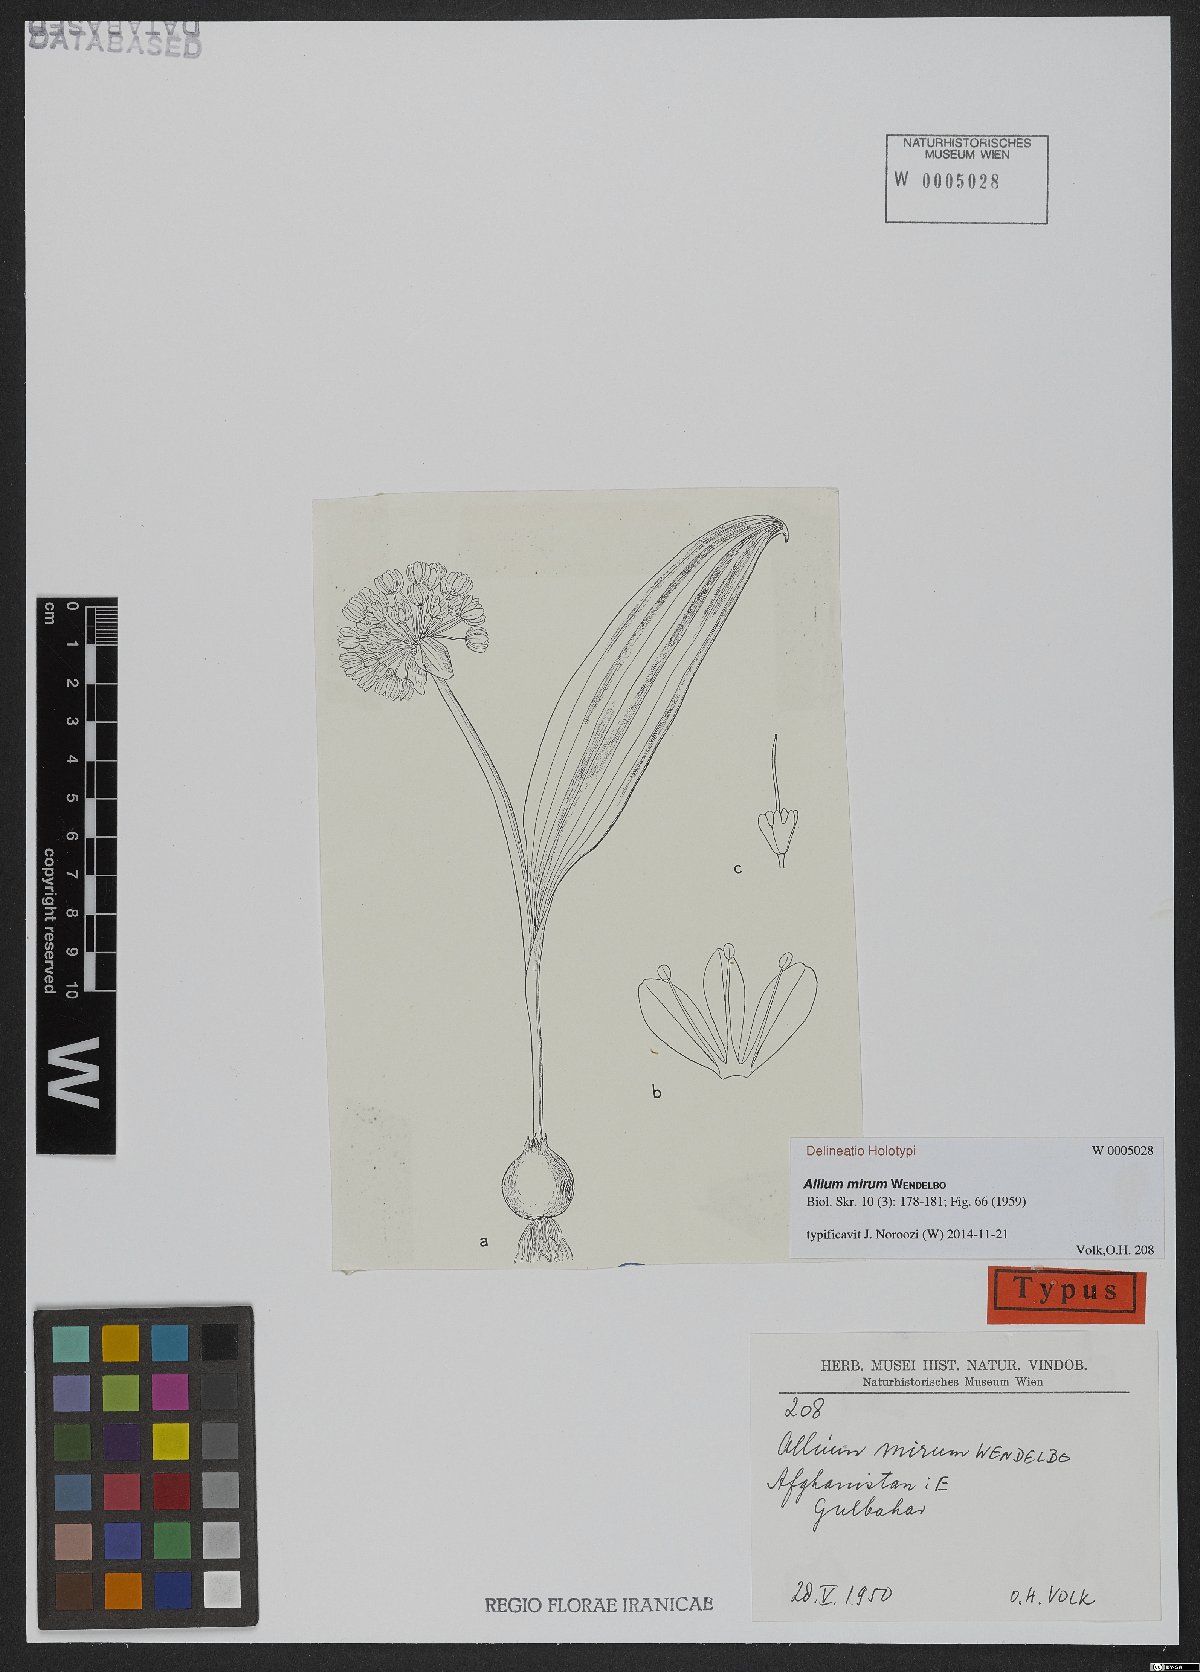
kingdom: Plantae
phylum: Tracheophyta
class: Liliopsida
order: Asparagales
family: Amaryllidaceae
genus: Allium
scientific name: Allium mirum
